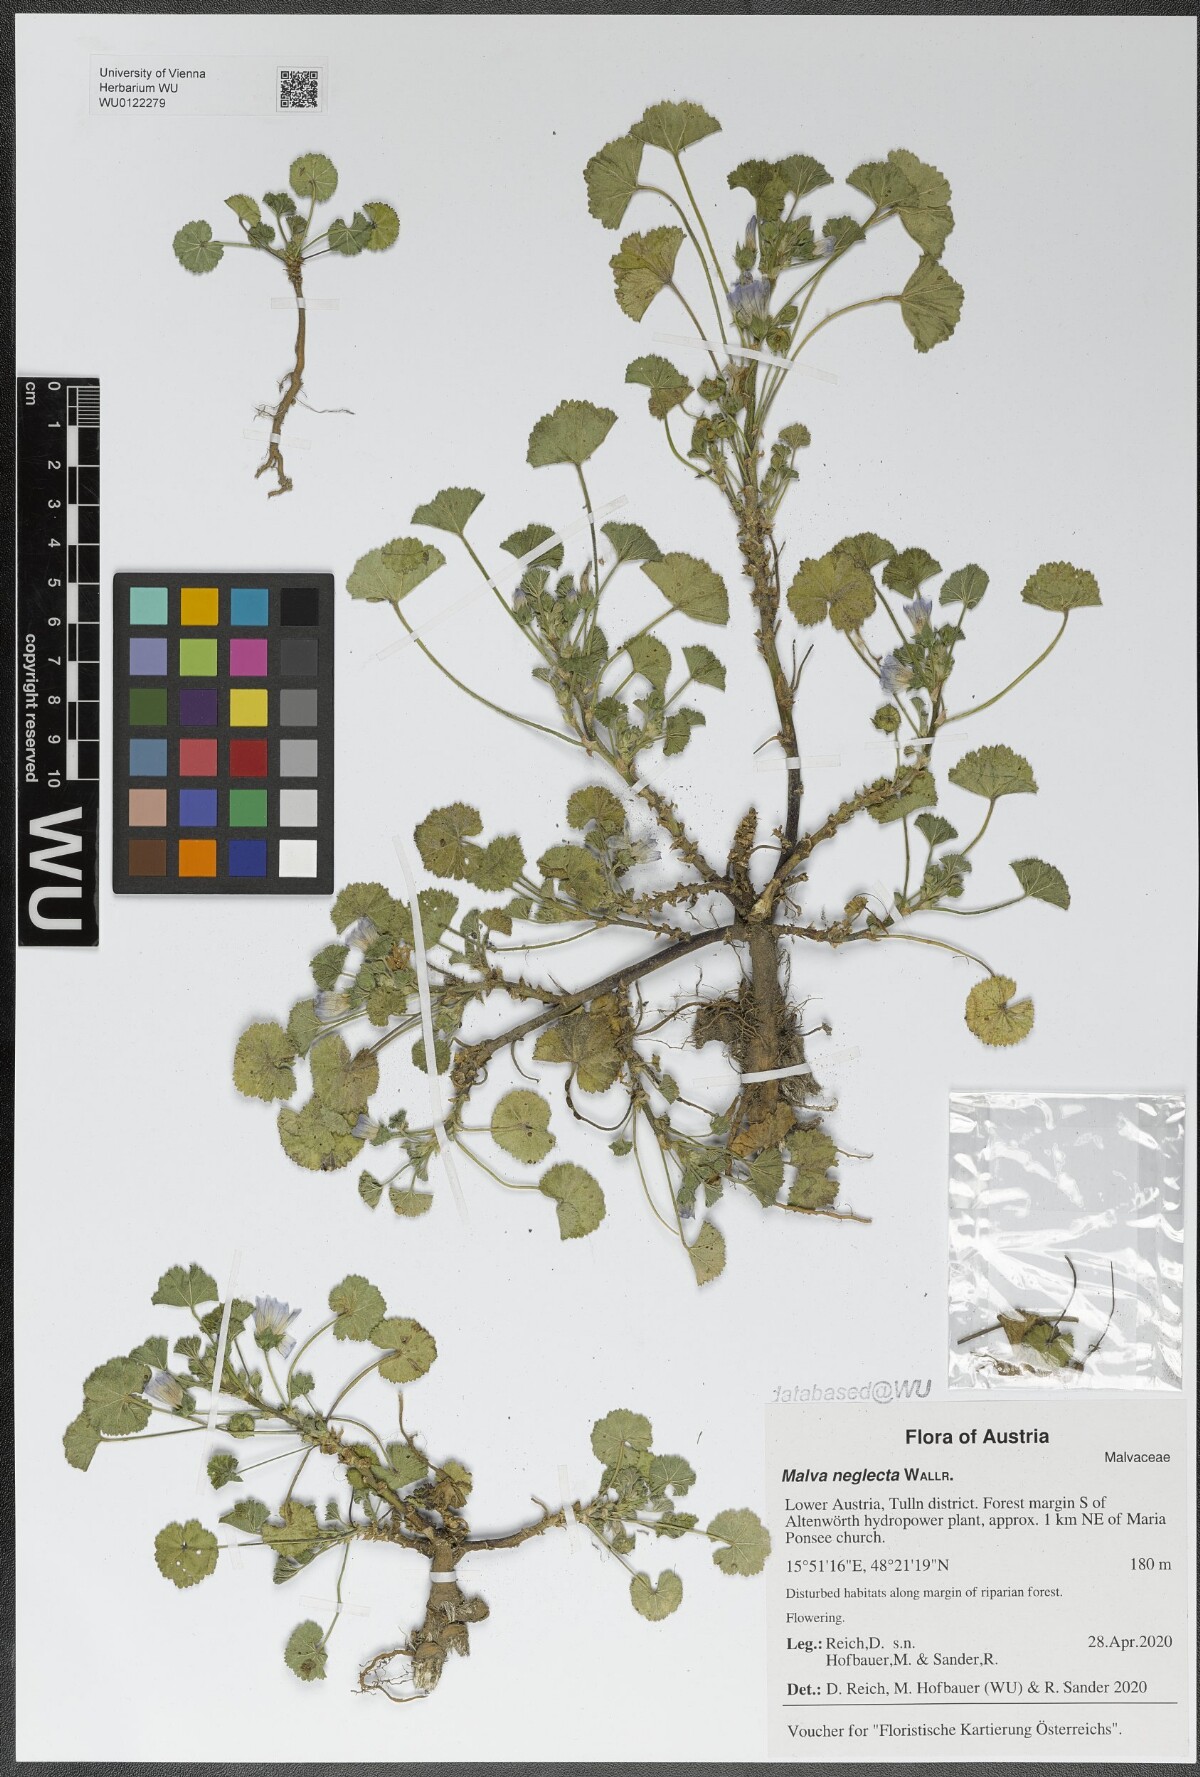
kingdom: Plantae
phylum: Tracheophyta
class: Magnoliopsida
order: Malvales
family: Malvaceae
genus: Malva
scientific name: Malva neglecta
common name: Common mallow
